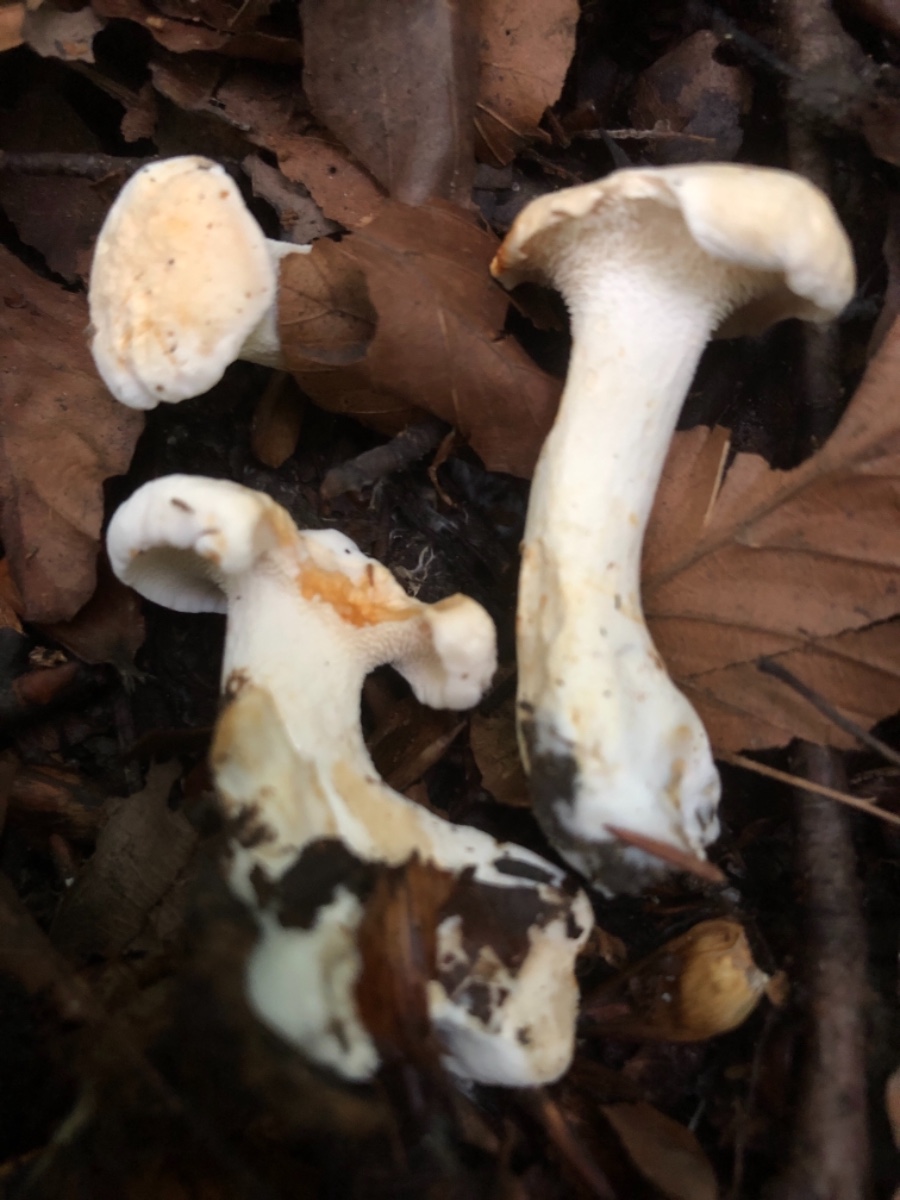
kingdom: Fungi
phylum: Basidiomycota
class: Agaricomycetes
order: Cantharellales
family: Hydnaceae
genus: Hydnum
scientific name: Hydnum vesterholtii
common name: Vesterholts pigsvamp
